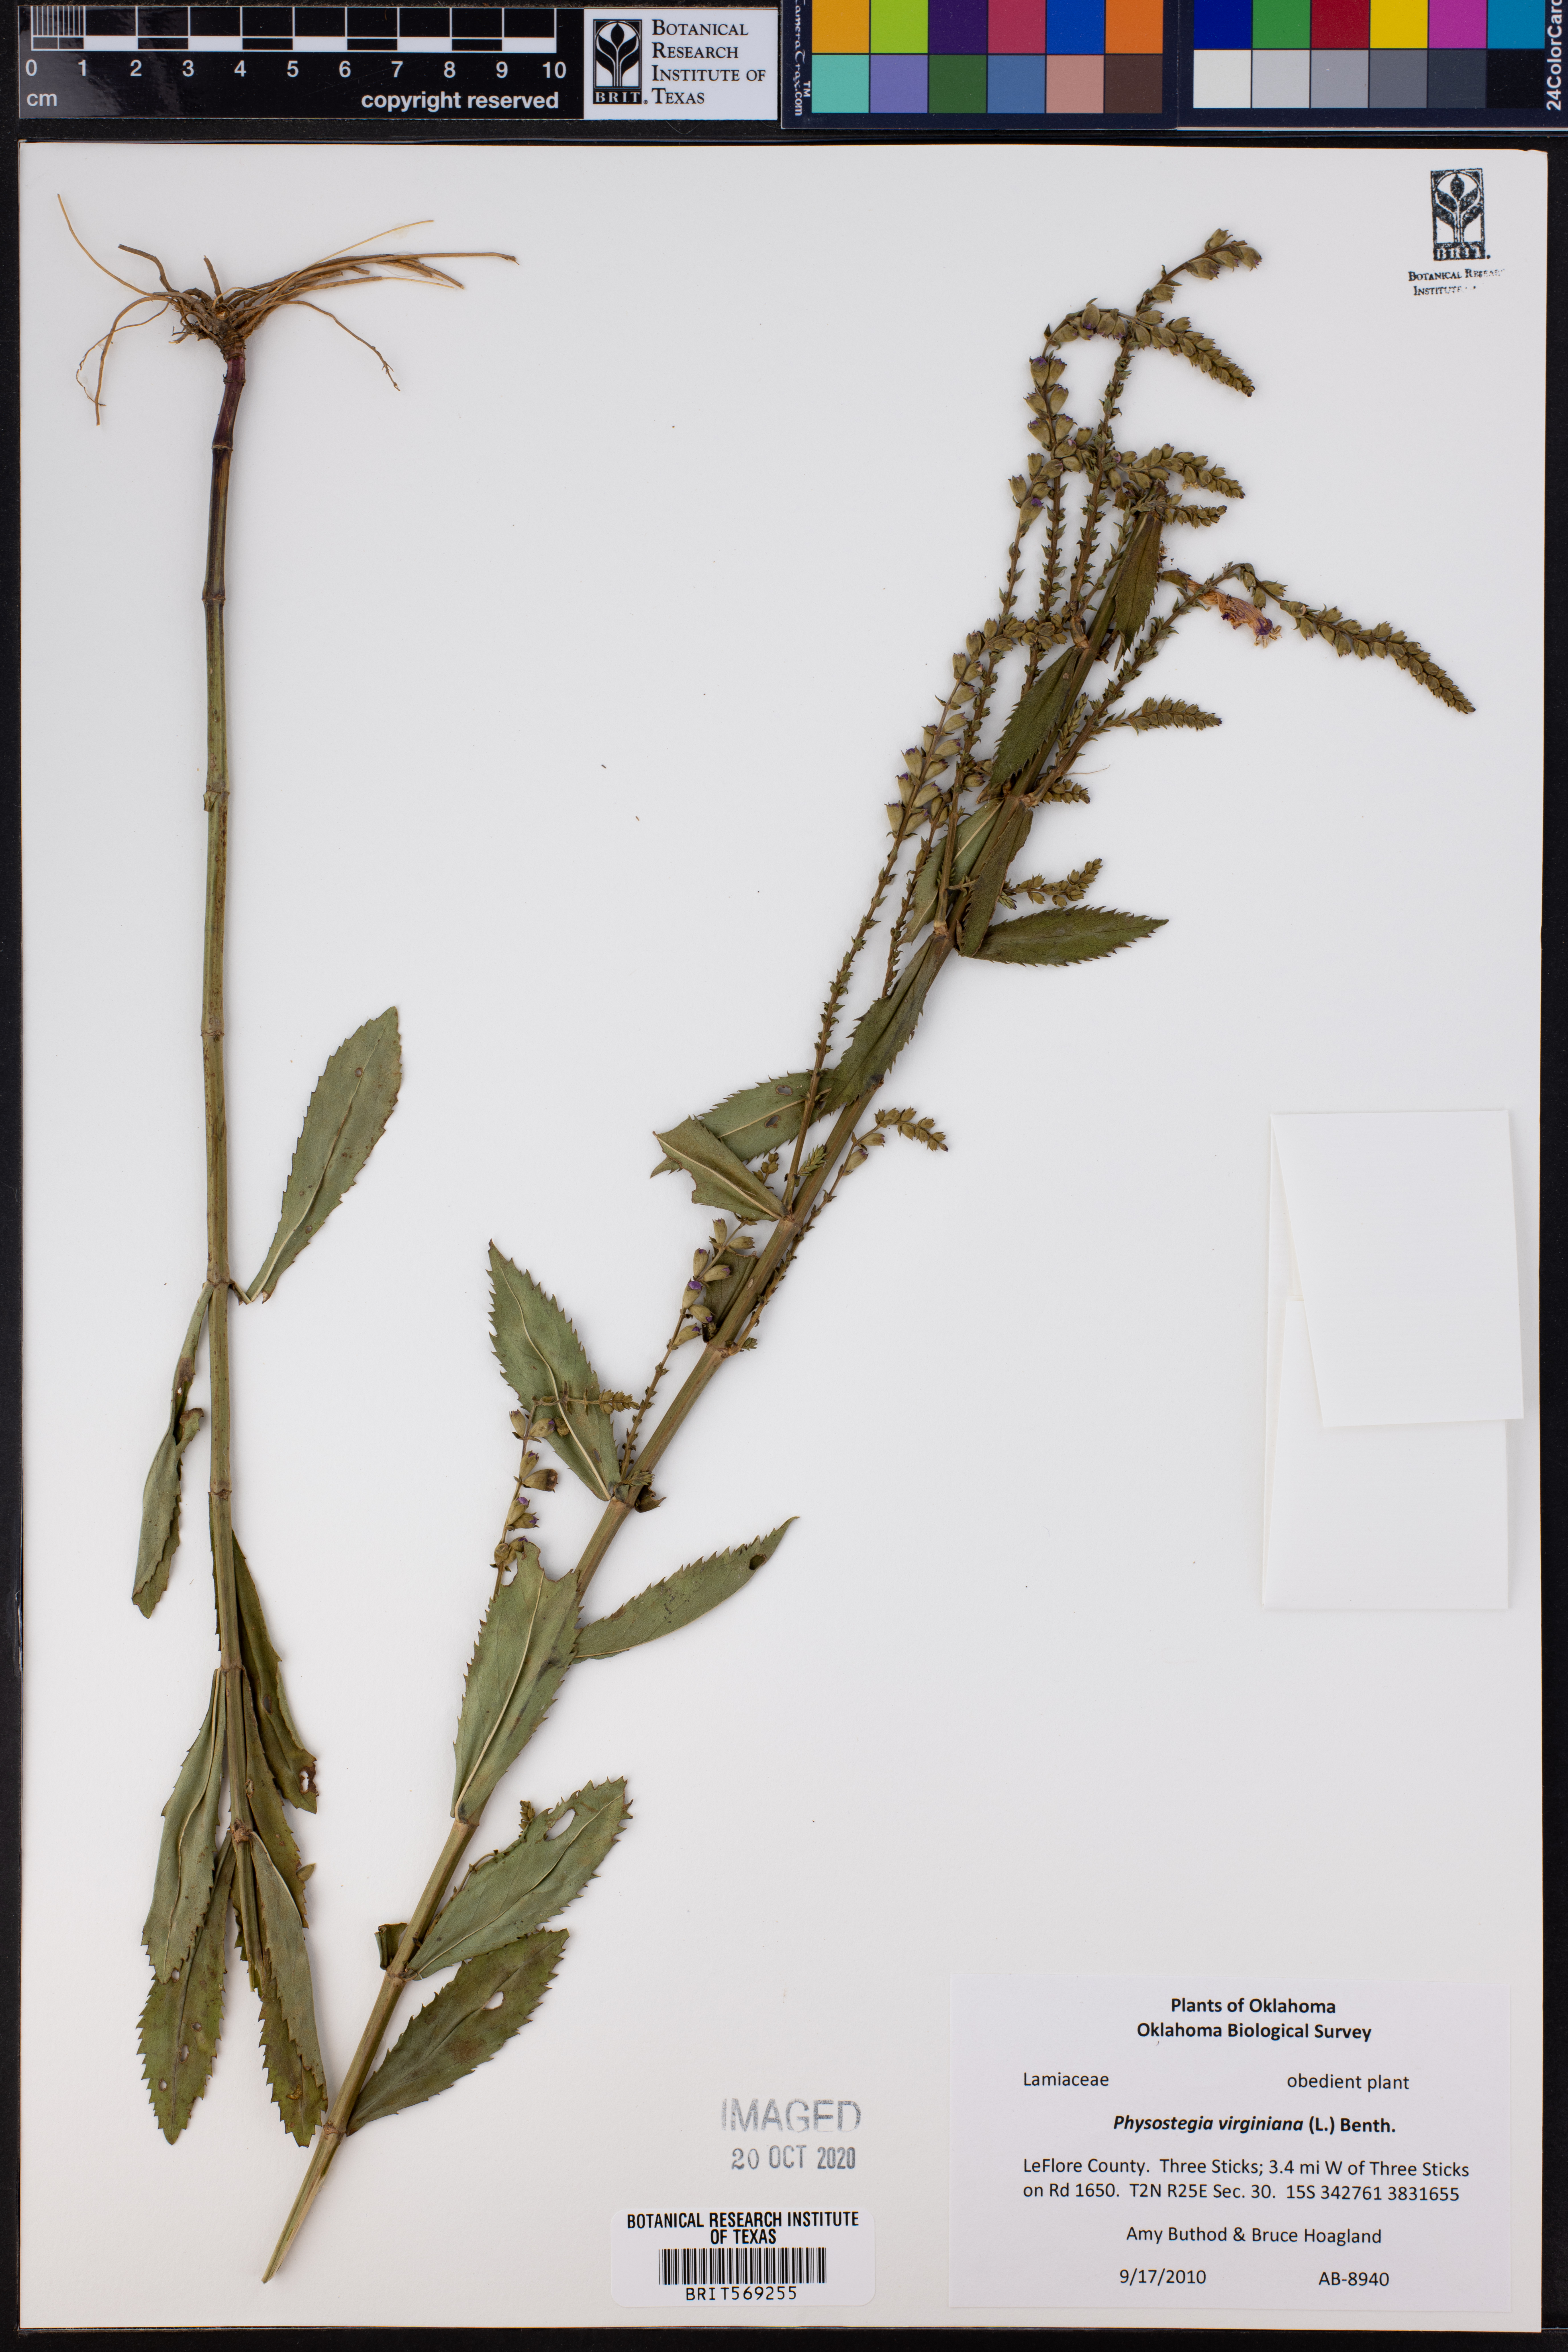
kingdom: Plantae
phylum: Tracheophyta
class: Magnoliopsida
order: Lamiales
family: Lamiaceae
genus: Physostegia
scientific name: Physostegia virginiana
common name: Obedient-plant
